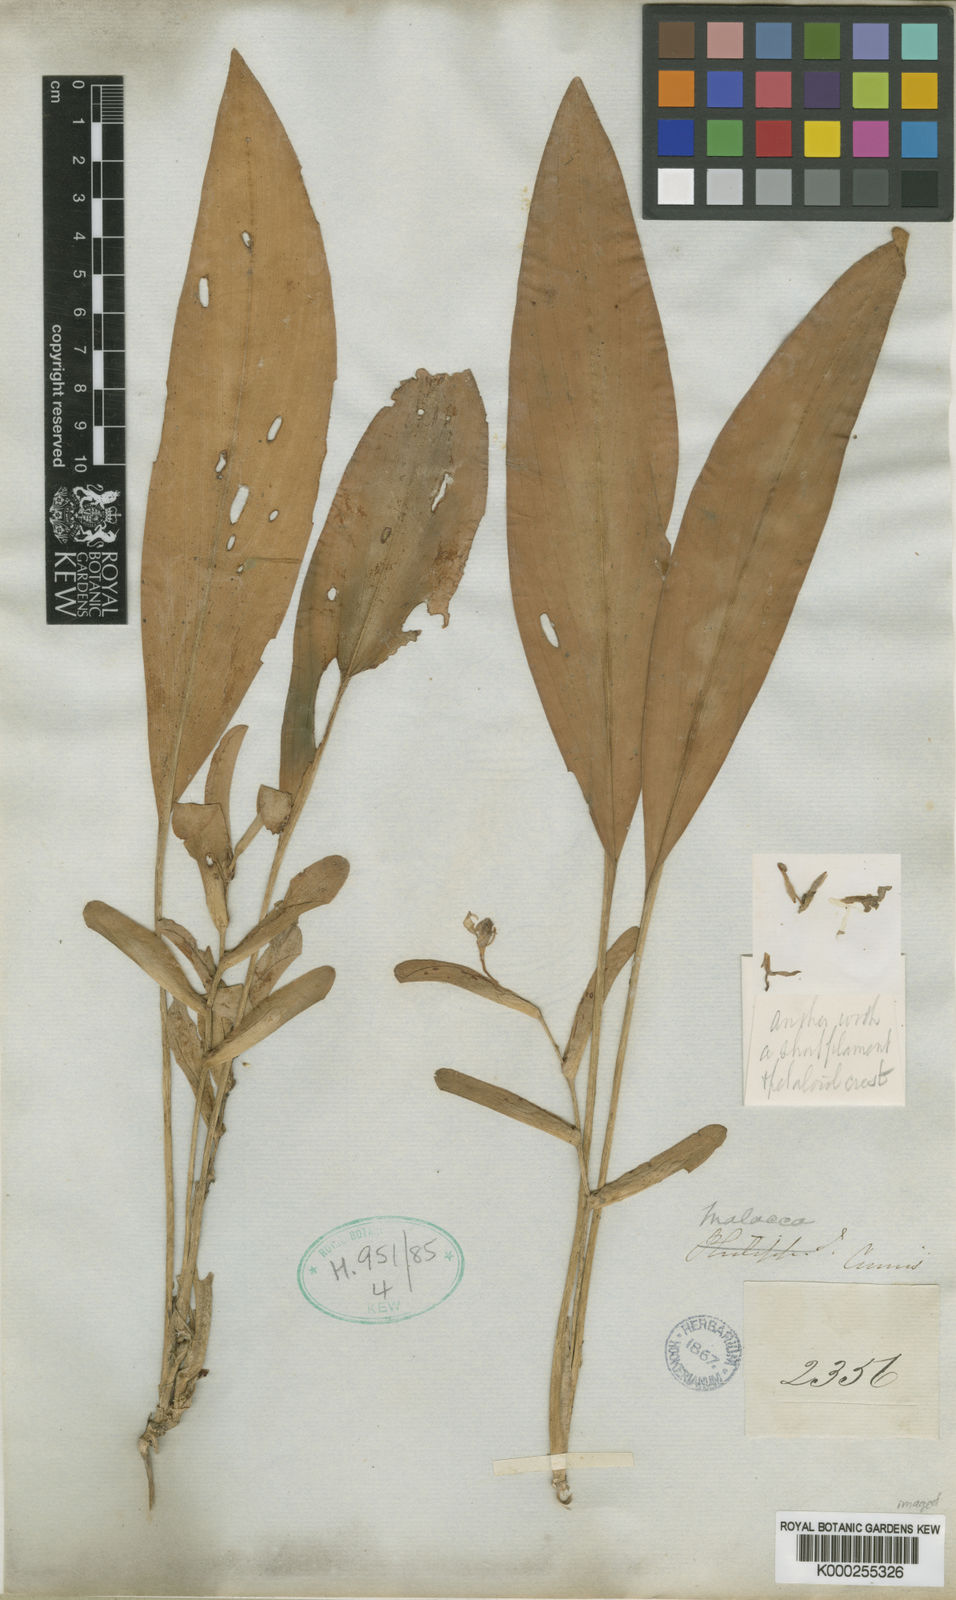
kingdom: Plantae
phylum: Tracheophyta
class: Liliopsida
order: Zingiberales
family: Zingiberaceae
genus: Scaphochlamys
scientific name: Scaphochlamys malaccana
